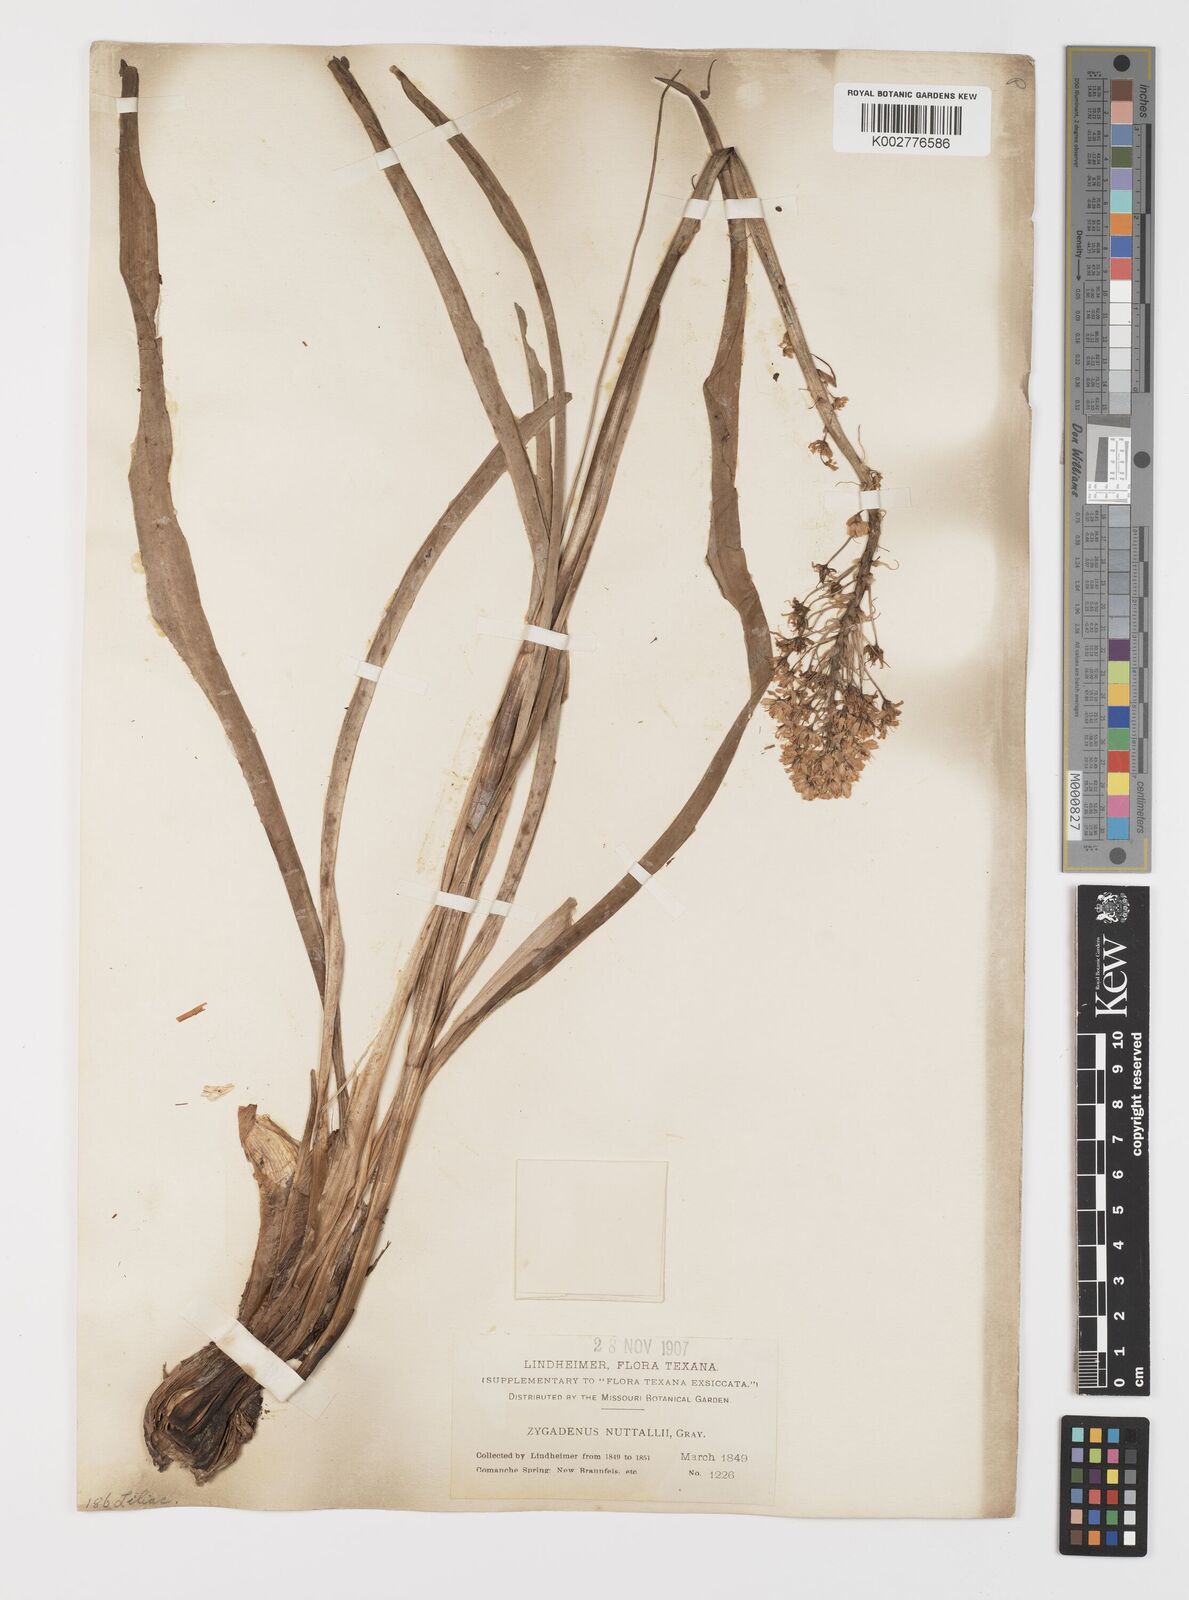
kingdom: Plantae
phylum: Tracheophyta
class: Liliopsida
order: Liliales
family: Melanthiaceae
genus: Toxicoscordion
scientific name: Toxicoscordion nuttallii
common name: Poison sego
